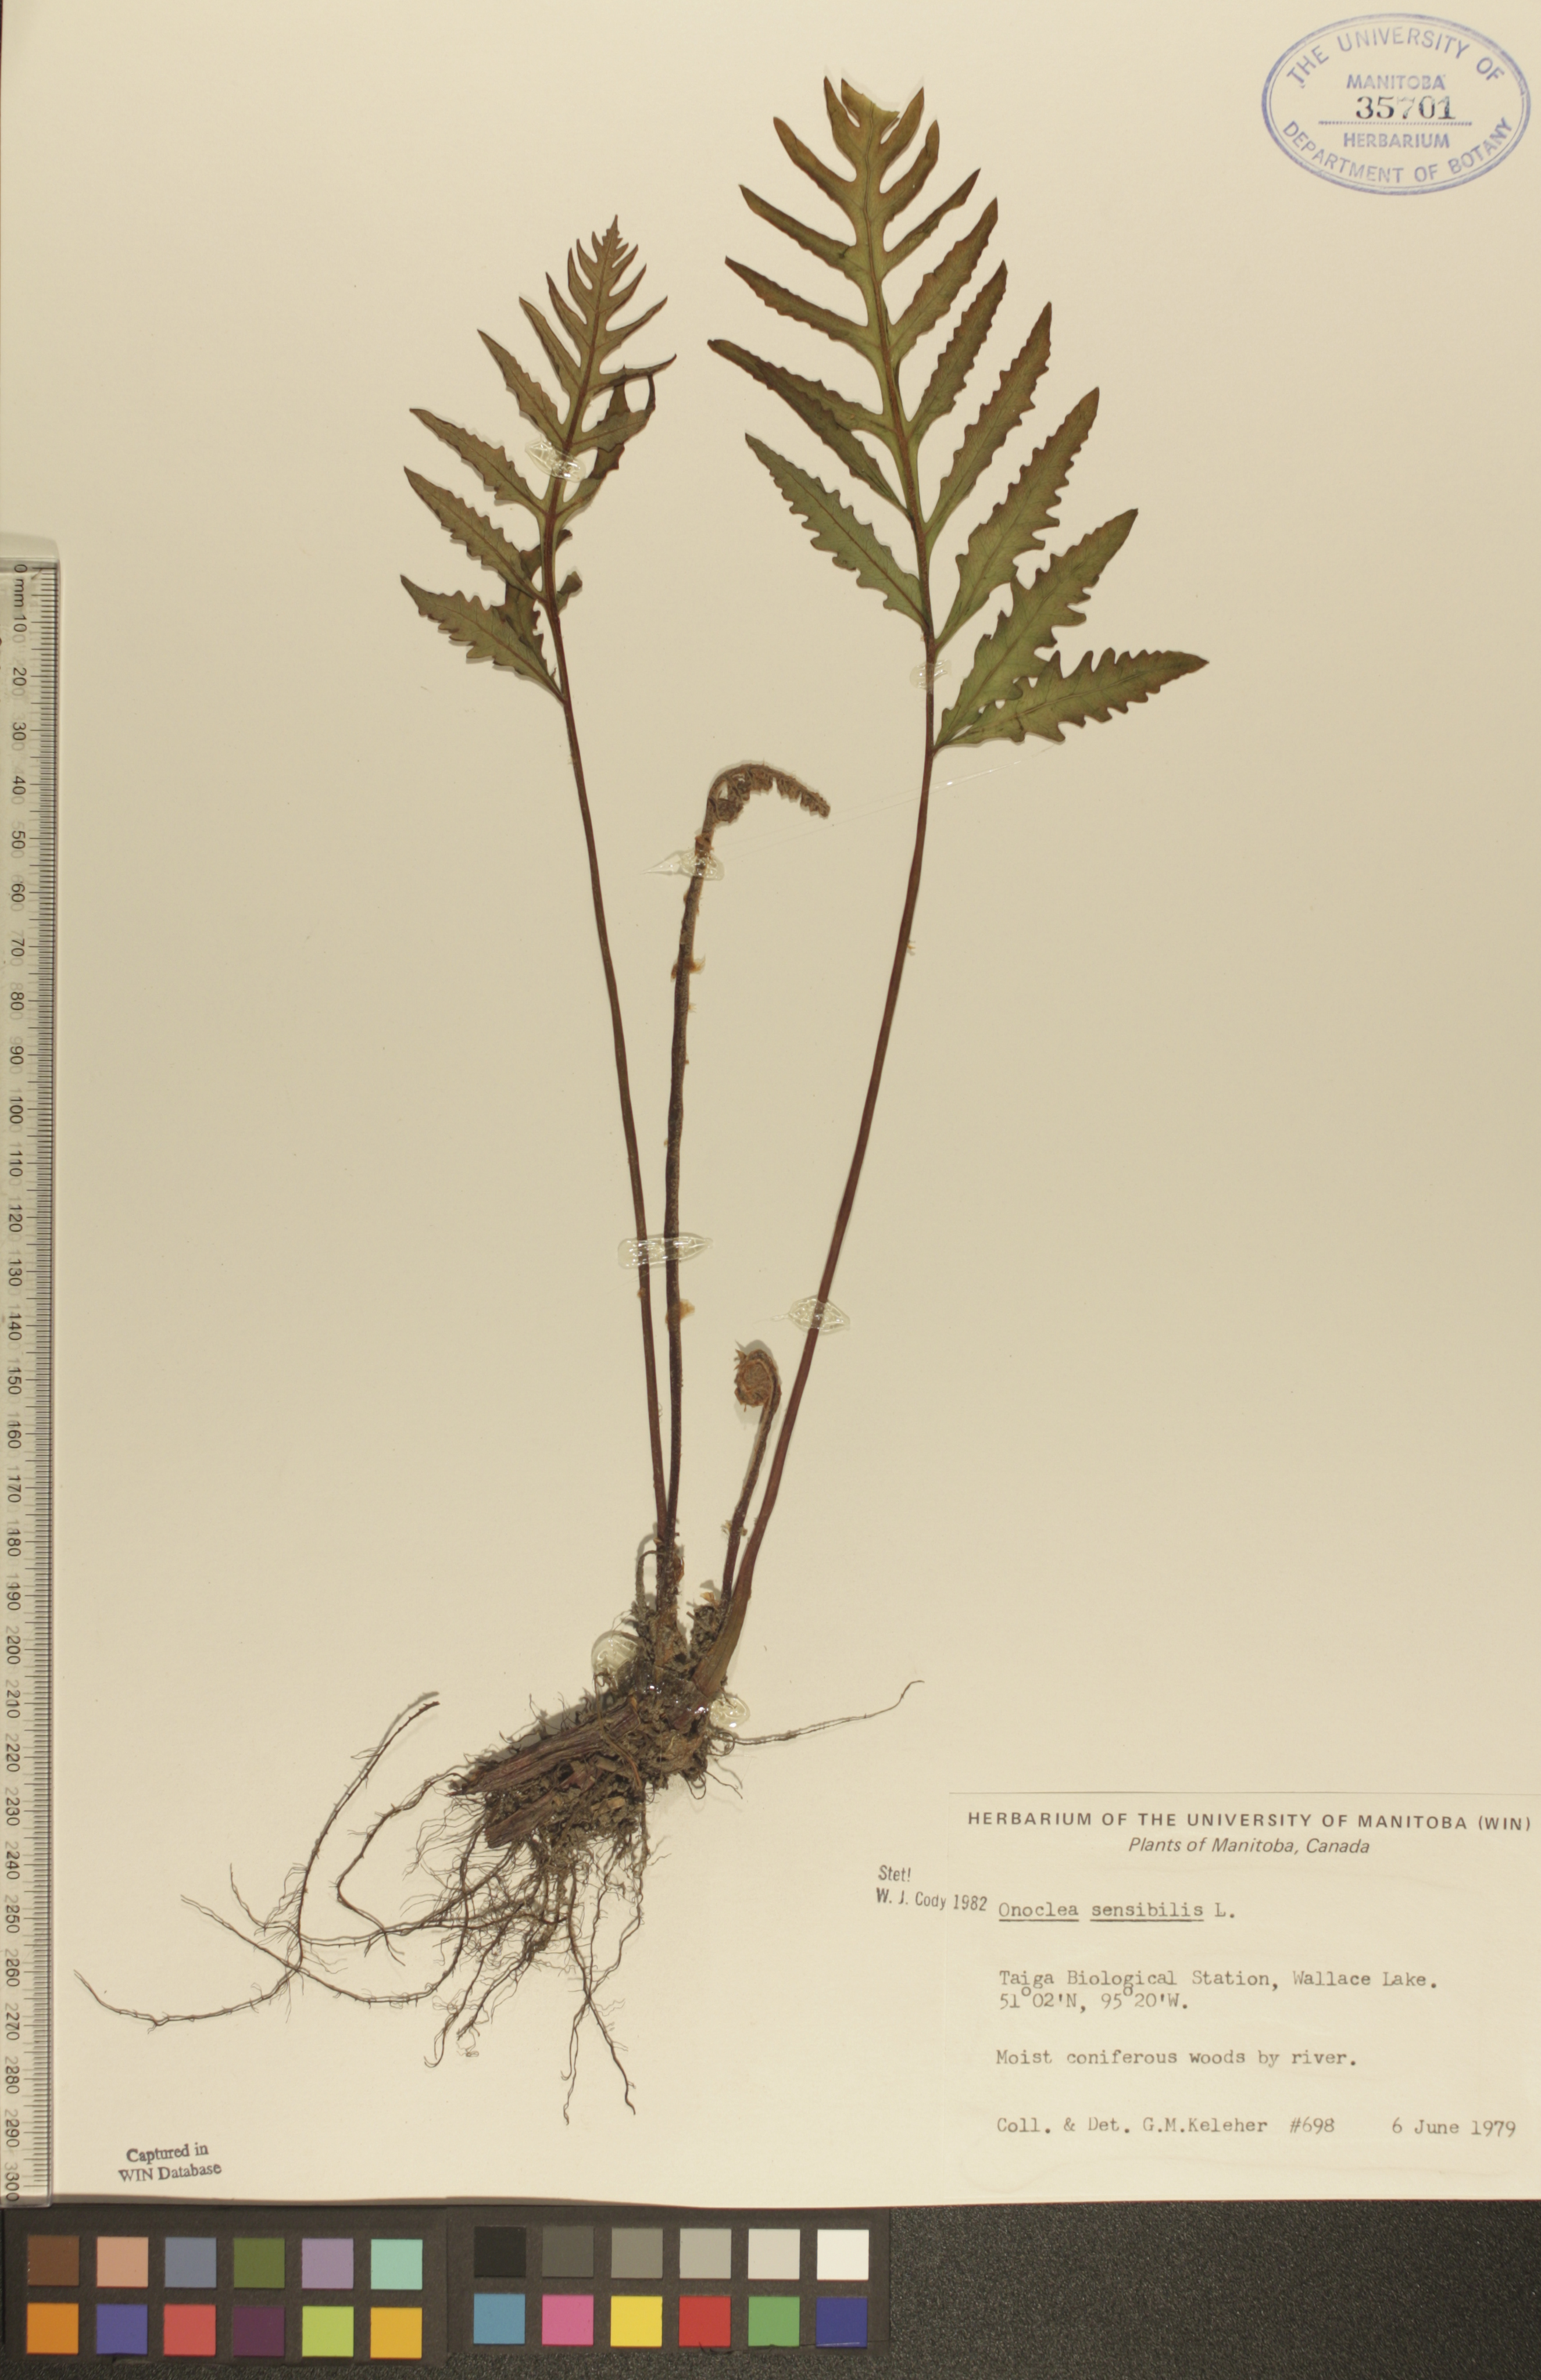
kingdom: Plantae
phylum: Tracheophyta
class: Polypodiopsida
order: Polypodiales
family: Onocleaceae
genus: Onoclea
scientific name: Onoclea sensibilis
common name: Sensitive fern
